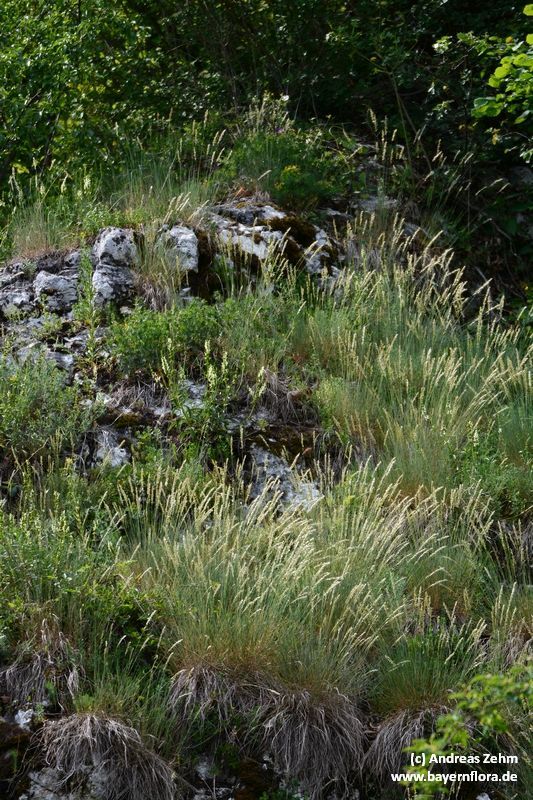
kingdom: Plantae
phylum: Tracheophyta
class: Liliopsida
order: Poales
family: Poaceae
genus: Melica
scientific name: Melica ciliata
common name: Hairy melicgrass
